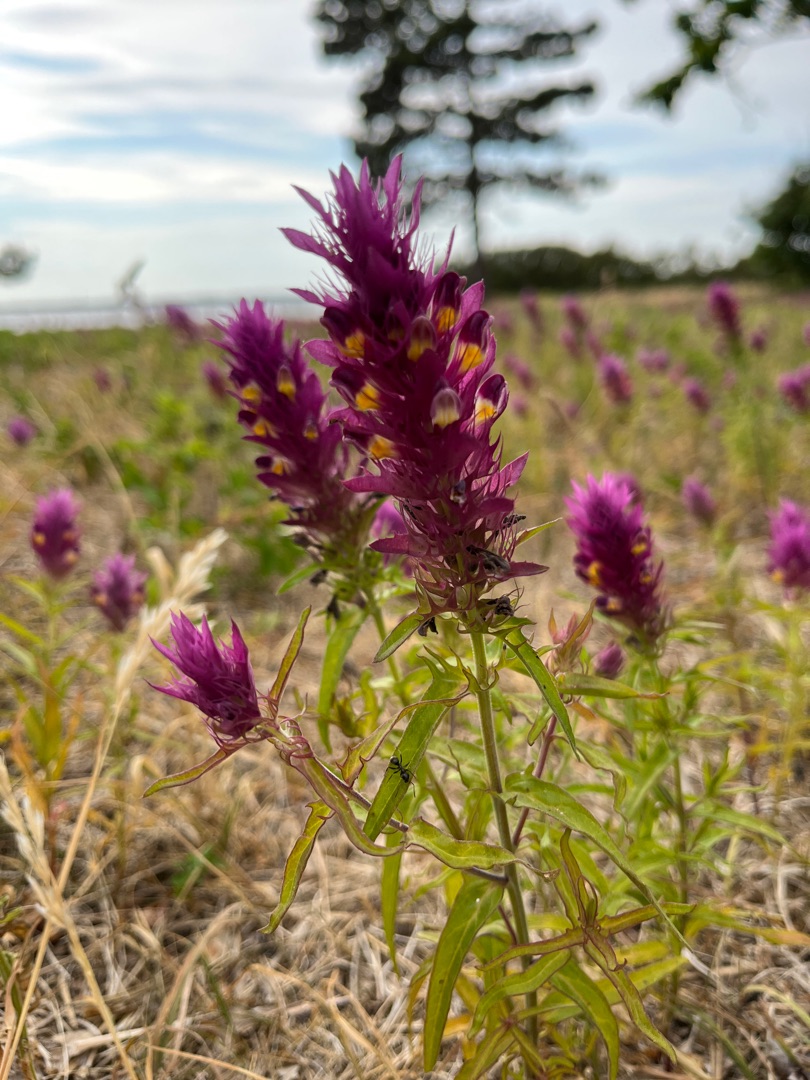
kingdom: Plantae
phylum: Tracheophyta
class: Magnoliopsida
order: Lamiales
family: Orobanchaceae
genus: Melampyrum
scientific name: Melampyrum arvense
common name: Ager-kohvede
